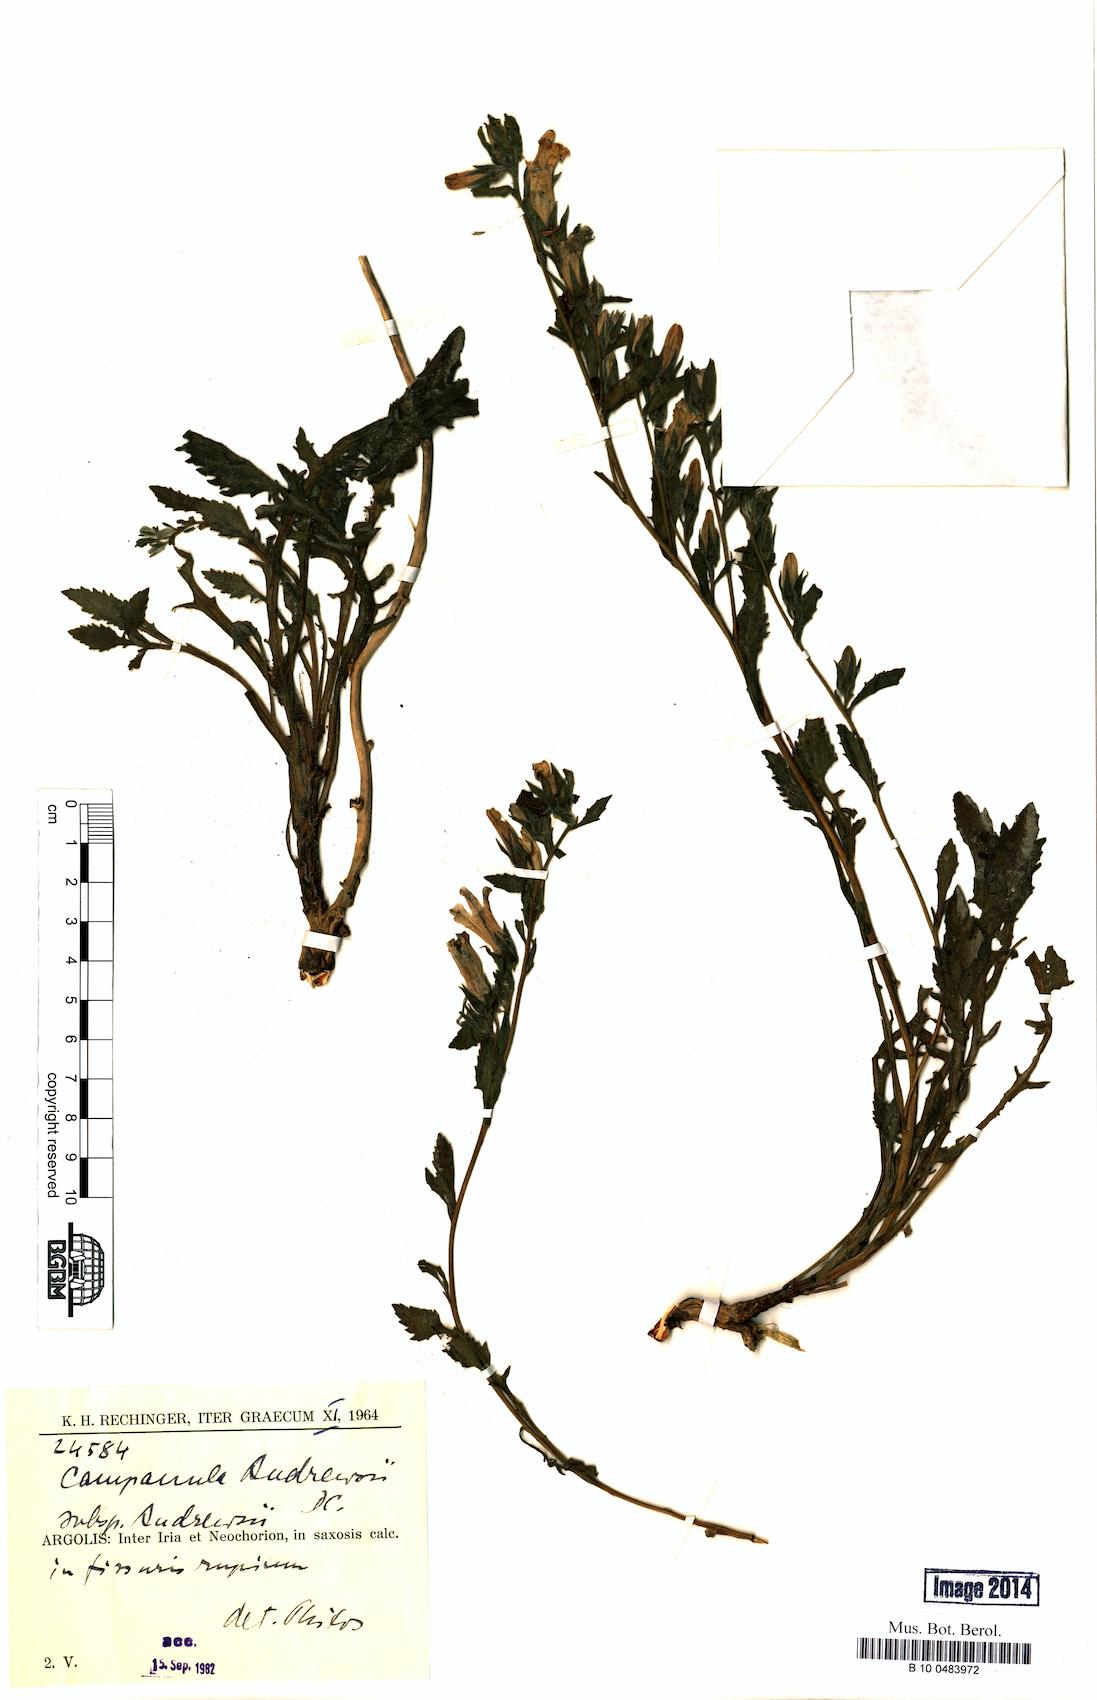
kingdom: Plantae
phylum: Tracheophyta
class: Magnoliopsida
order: Asterales
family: Campanulaceae
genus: Campanula
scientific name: Campanula andrewsii
